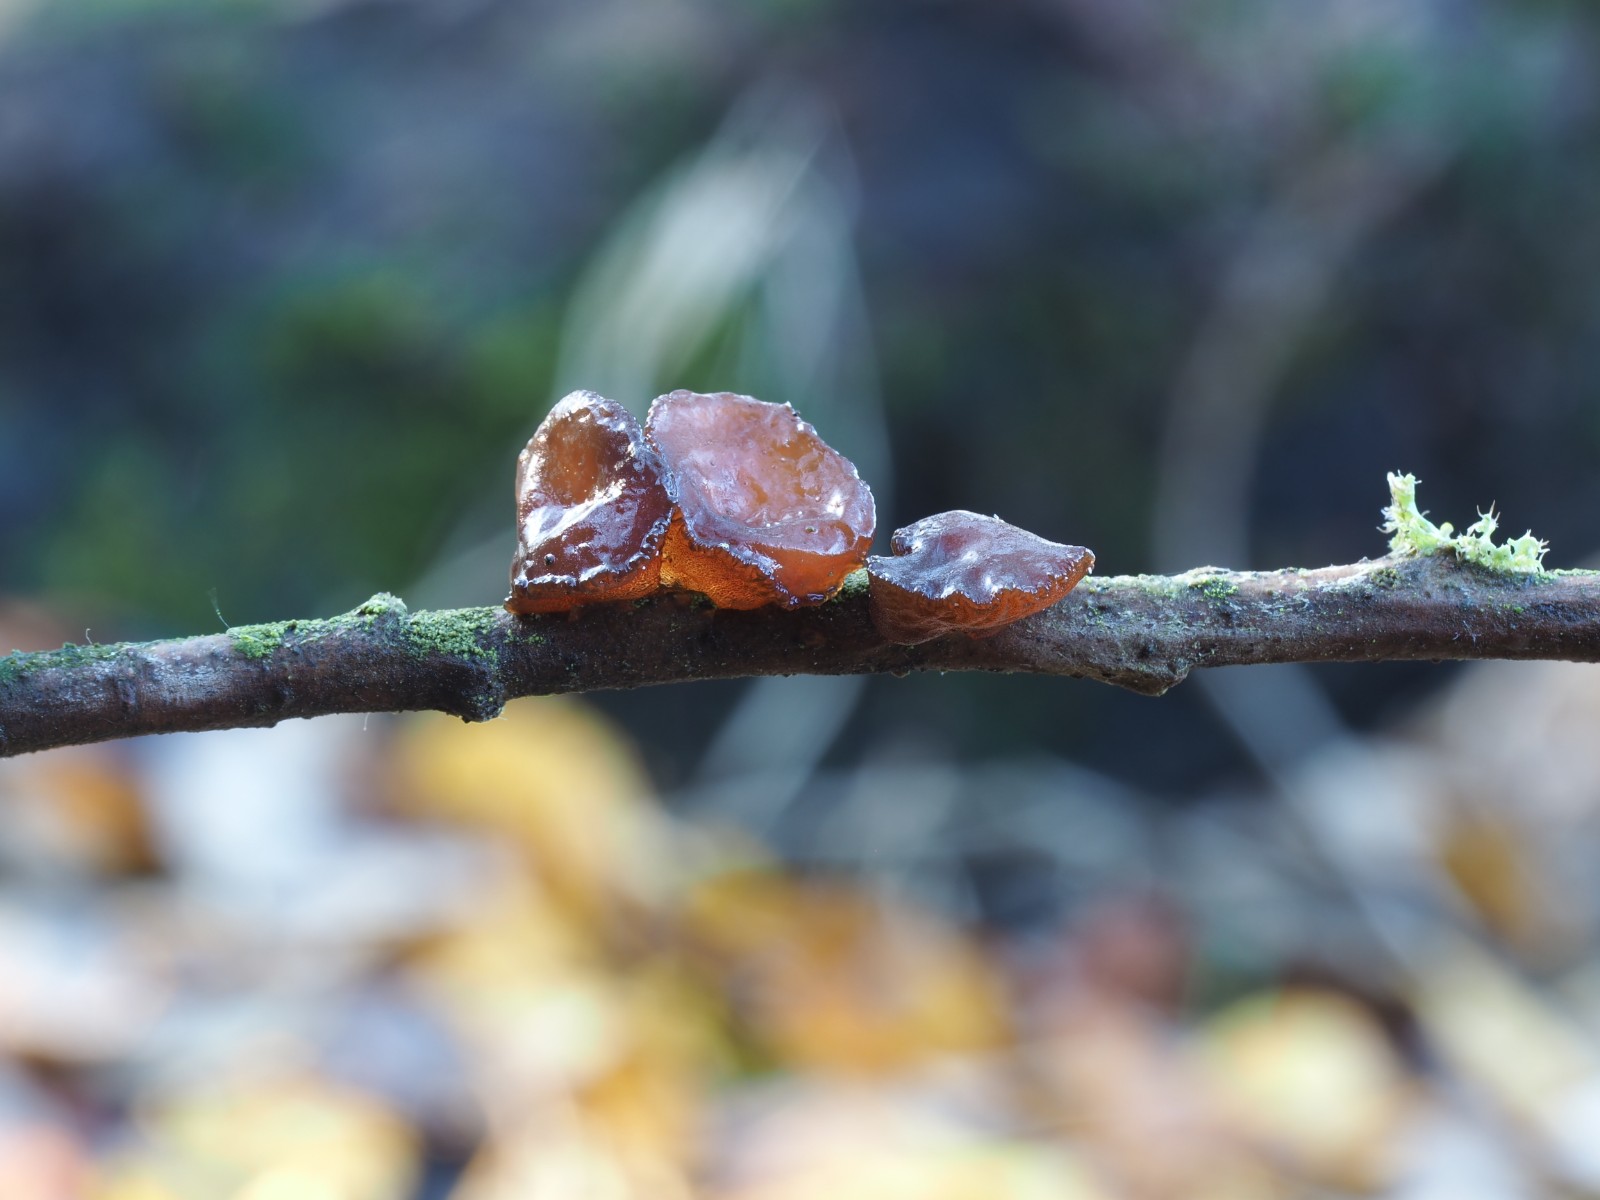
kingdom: Fungi
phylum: Basidiomycota
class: Agaricomycetes
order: Auriculariales
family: Auriculariaceae
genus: Exidia
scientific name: Exidia recisa
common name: pile-bævretop
